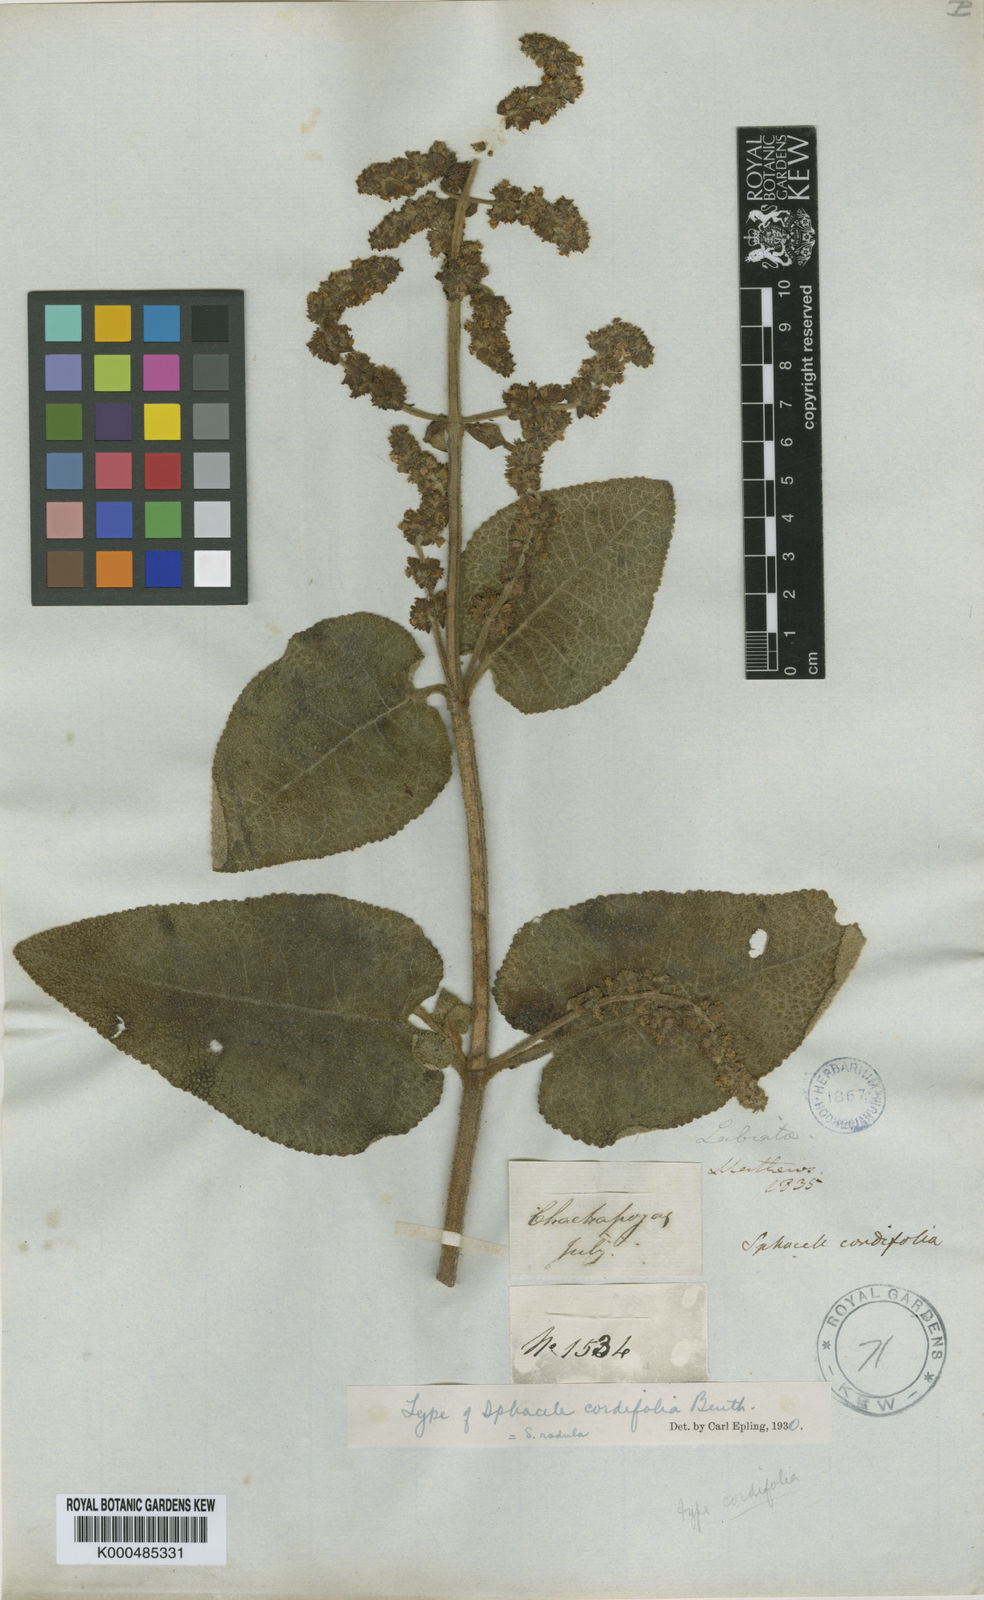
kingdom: Plantae
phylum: Tracheophyta
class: Magnoliopsida
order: Lamiales
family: Lamiaceae
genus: Lepechinia
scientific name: Lepechinia radula
